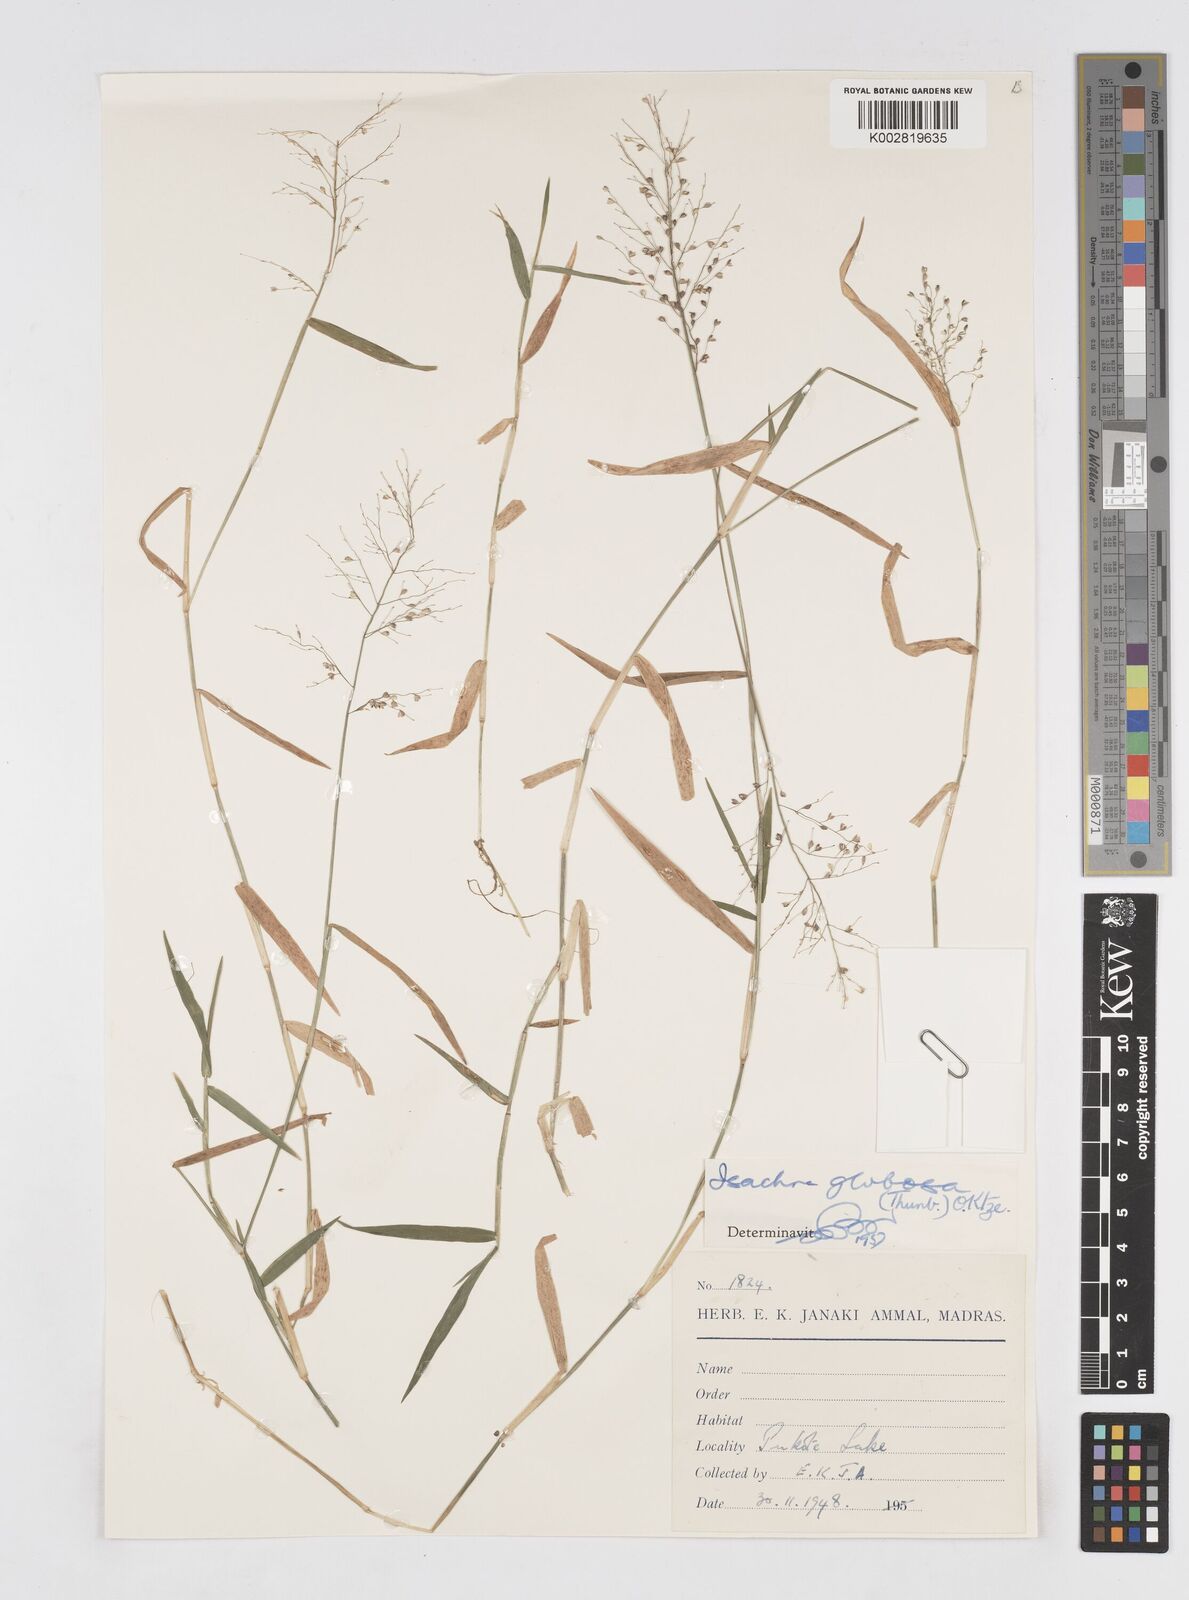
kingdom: Plantae
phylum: Tracheophyta
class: Liliopsida
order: Poales
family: Poaceae
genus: Isachne
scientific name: Isachne globosa
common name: Swamp millet
